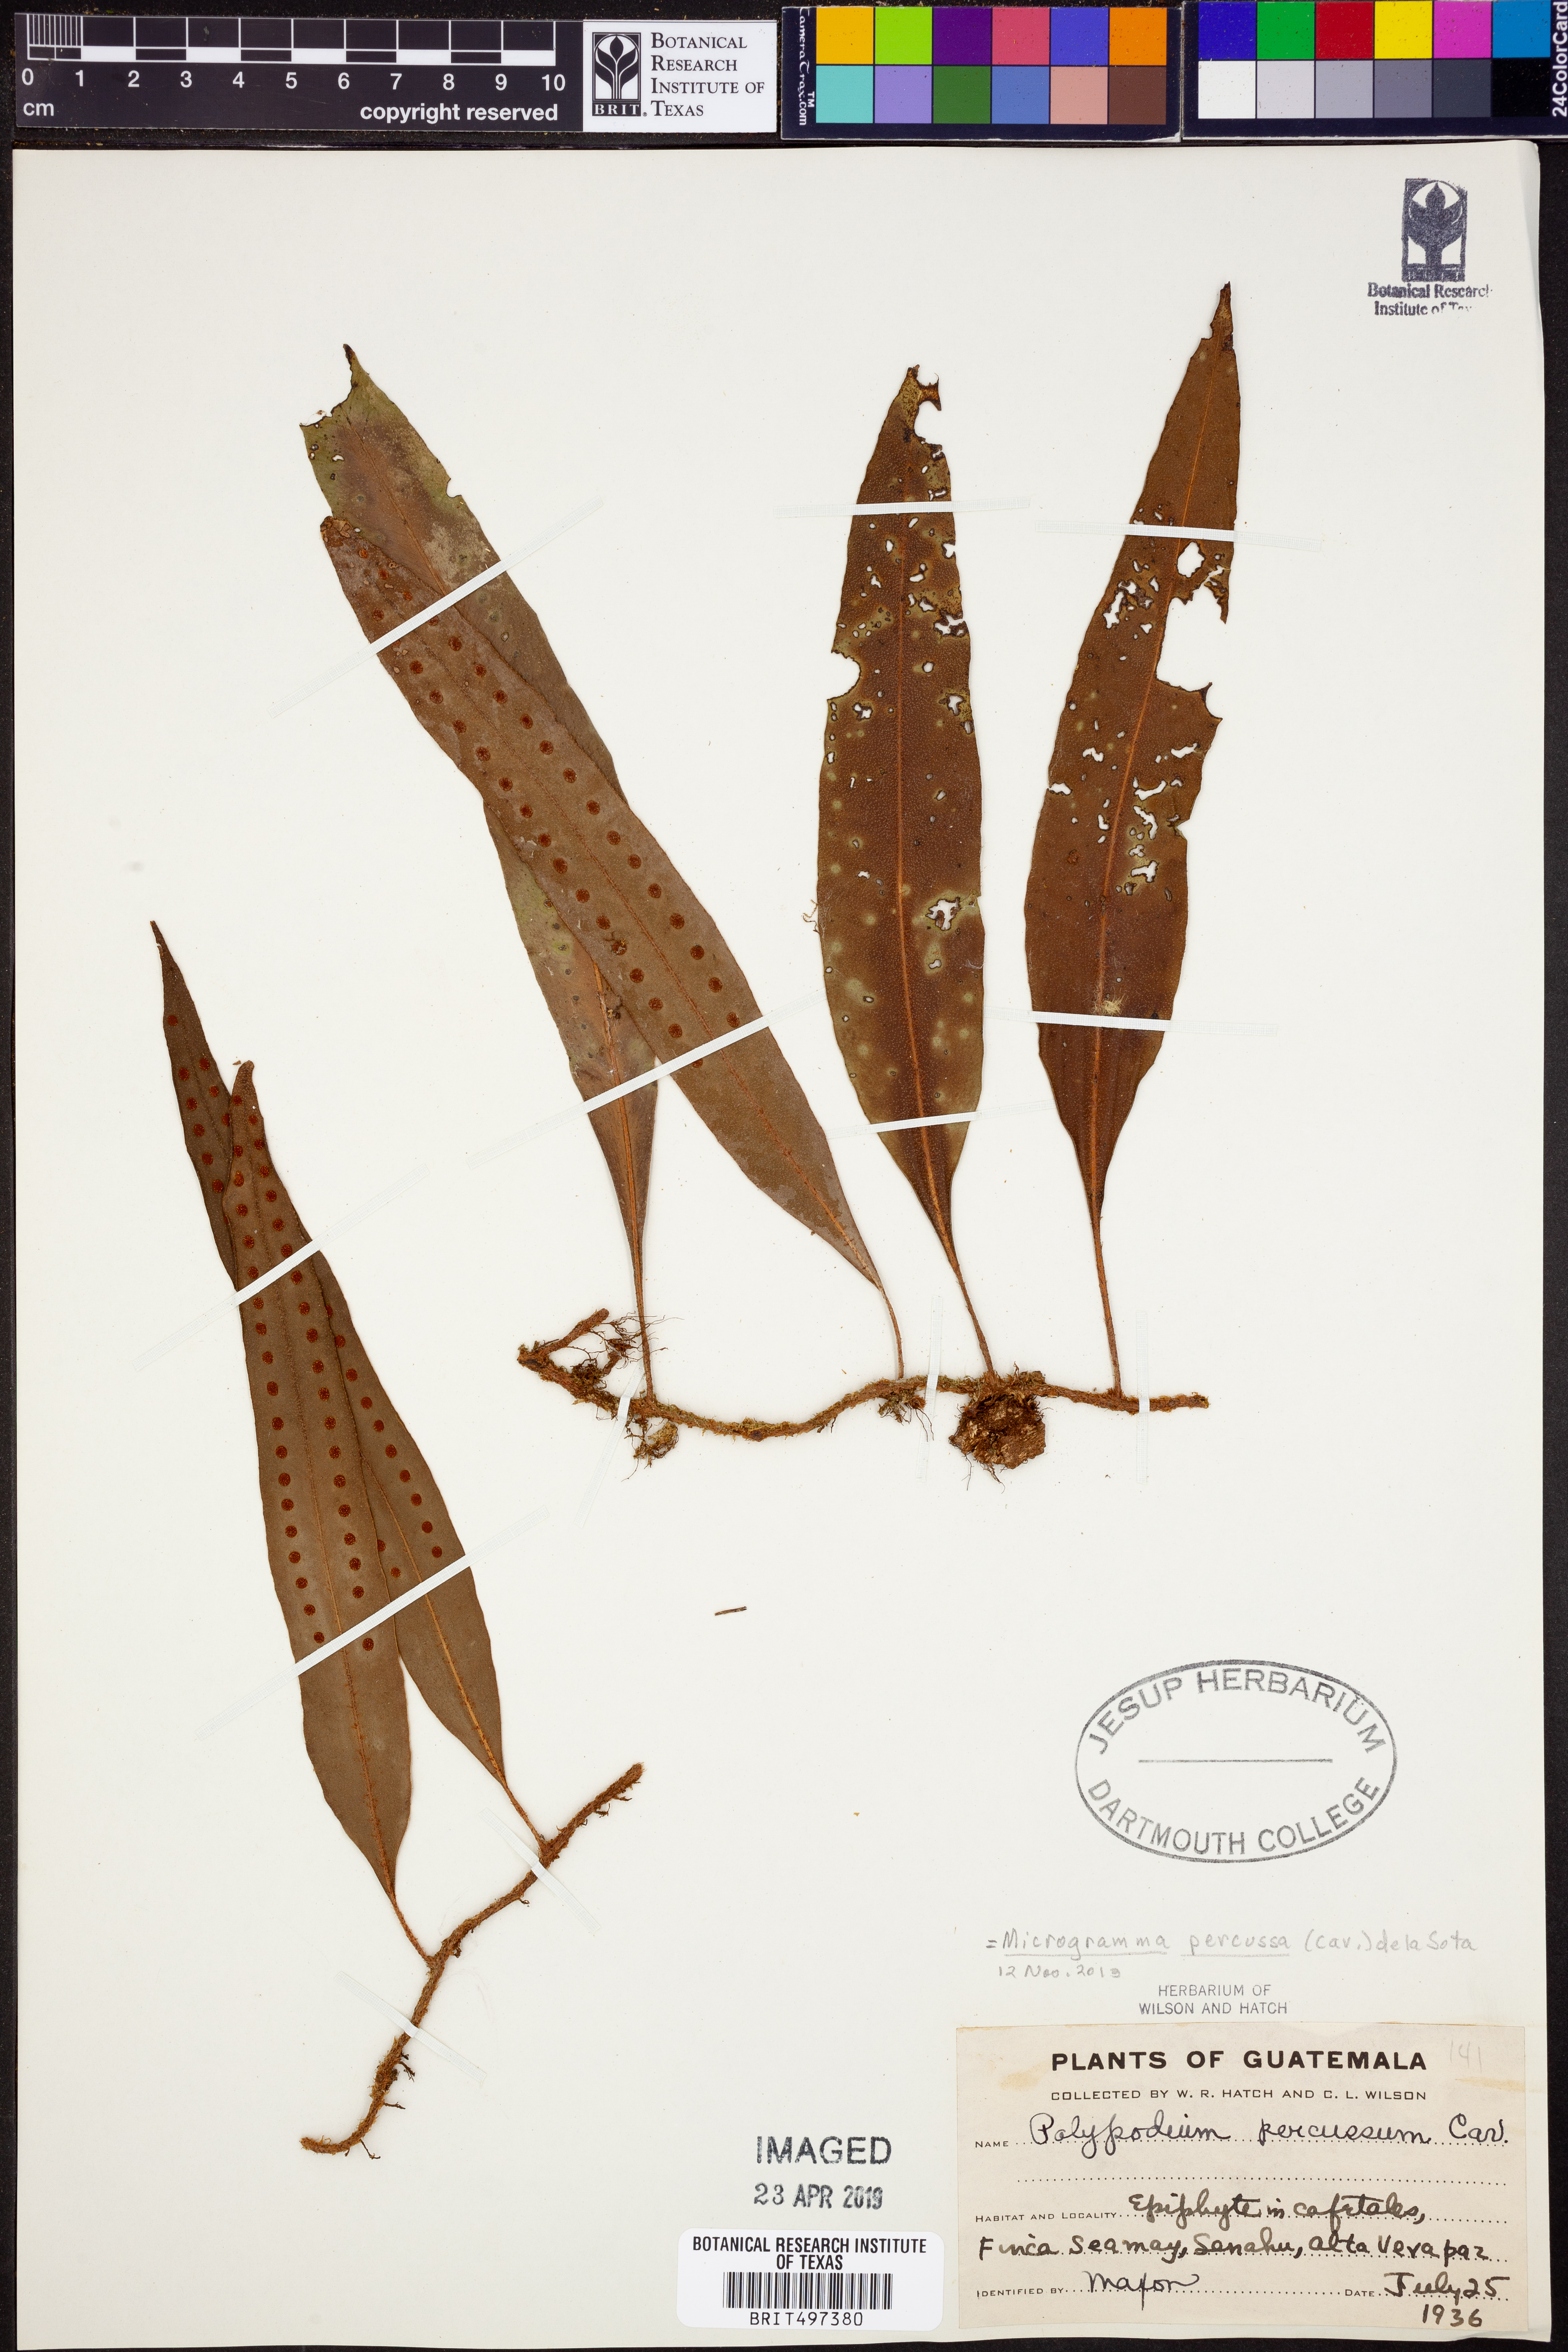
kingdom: Plantae
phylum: Tracheophyta
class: Polypodiopsida
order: Polypodiales
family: Polypodiaceae
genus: Microgramma
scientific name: Microgramma percussa
